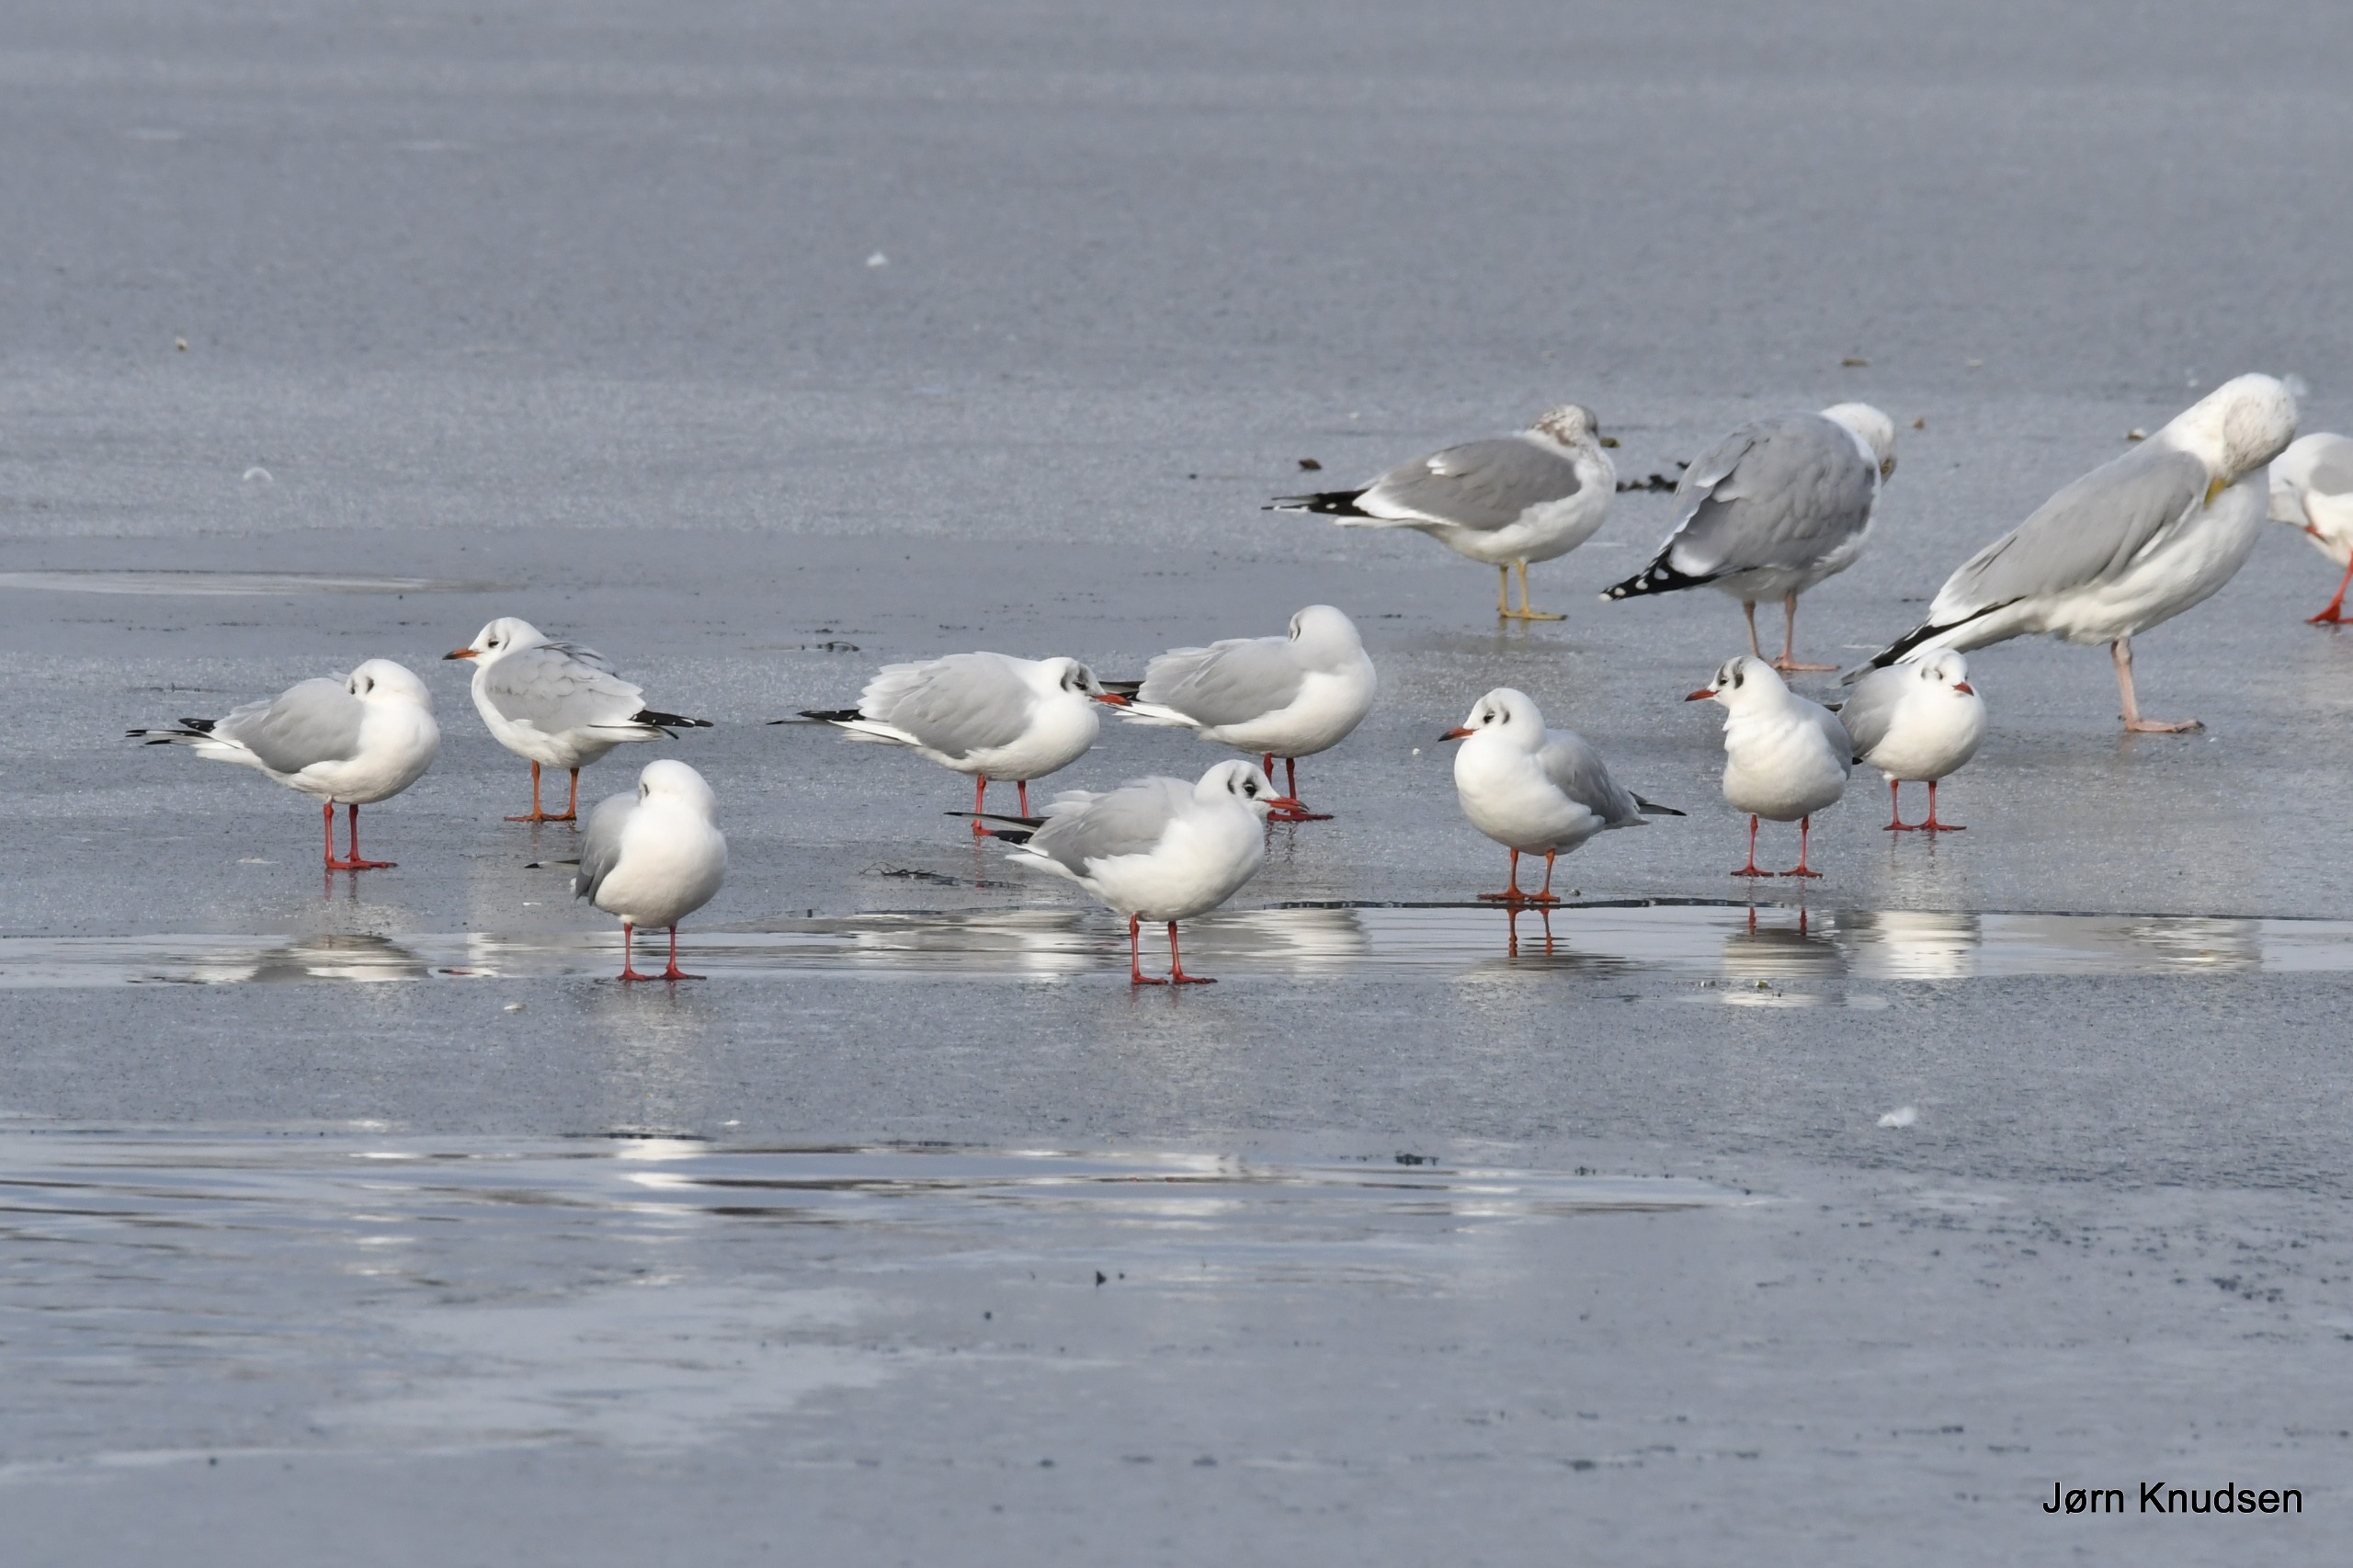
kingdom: Animalia
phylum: Chordata
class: Aves
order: Charadriiformes
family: Laridae
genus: Chroicocephalus
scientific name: Chroicocephalus ridibundus
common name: Hættemåge
